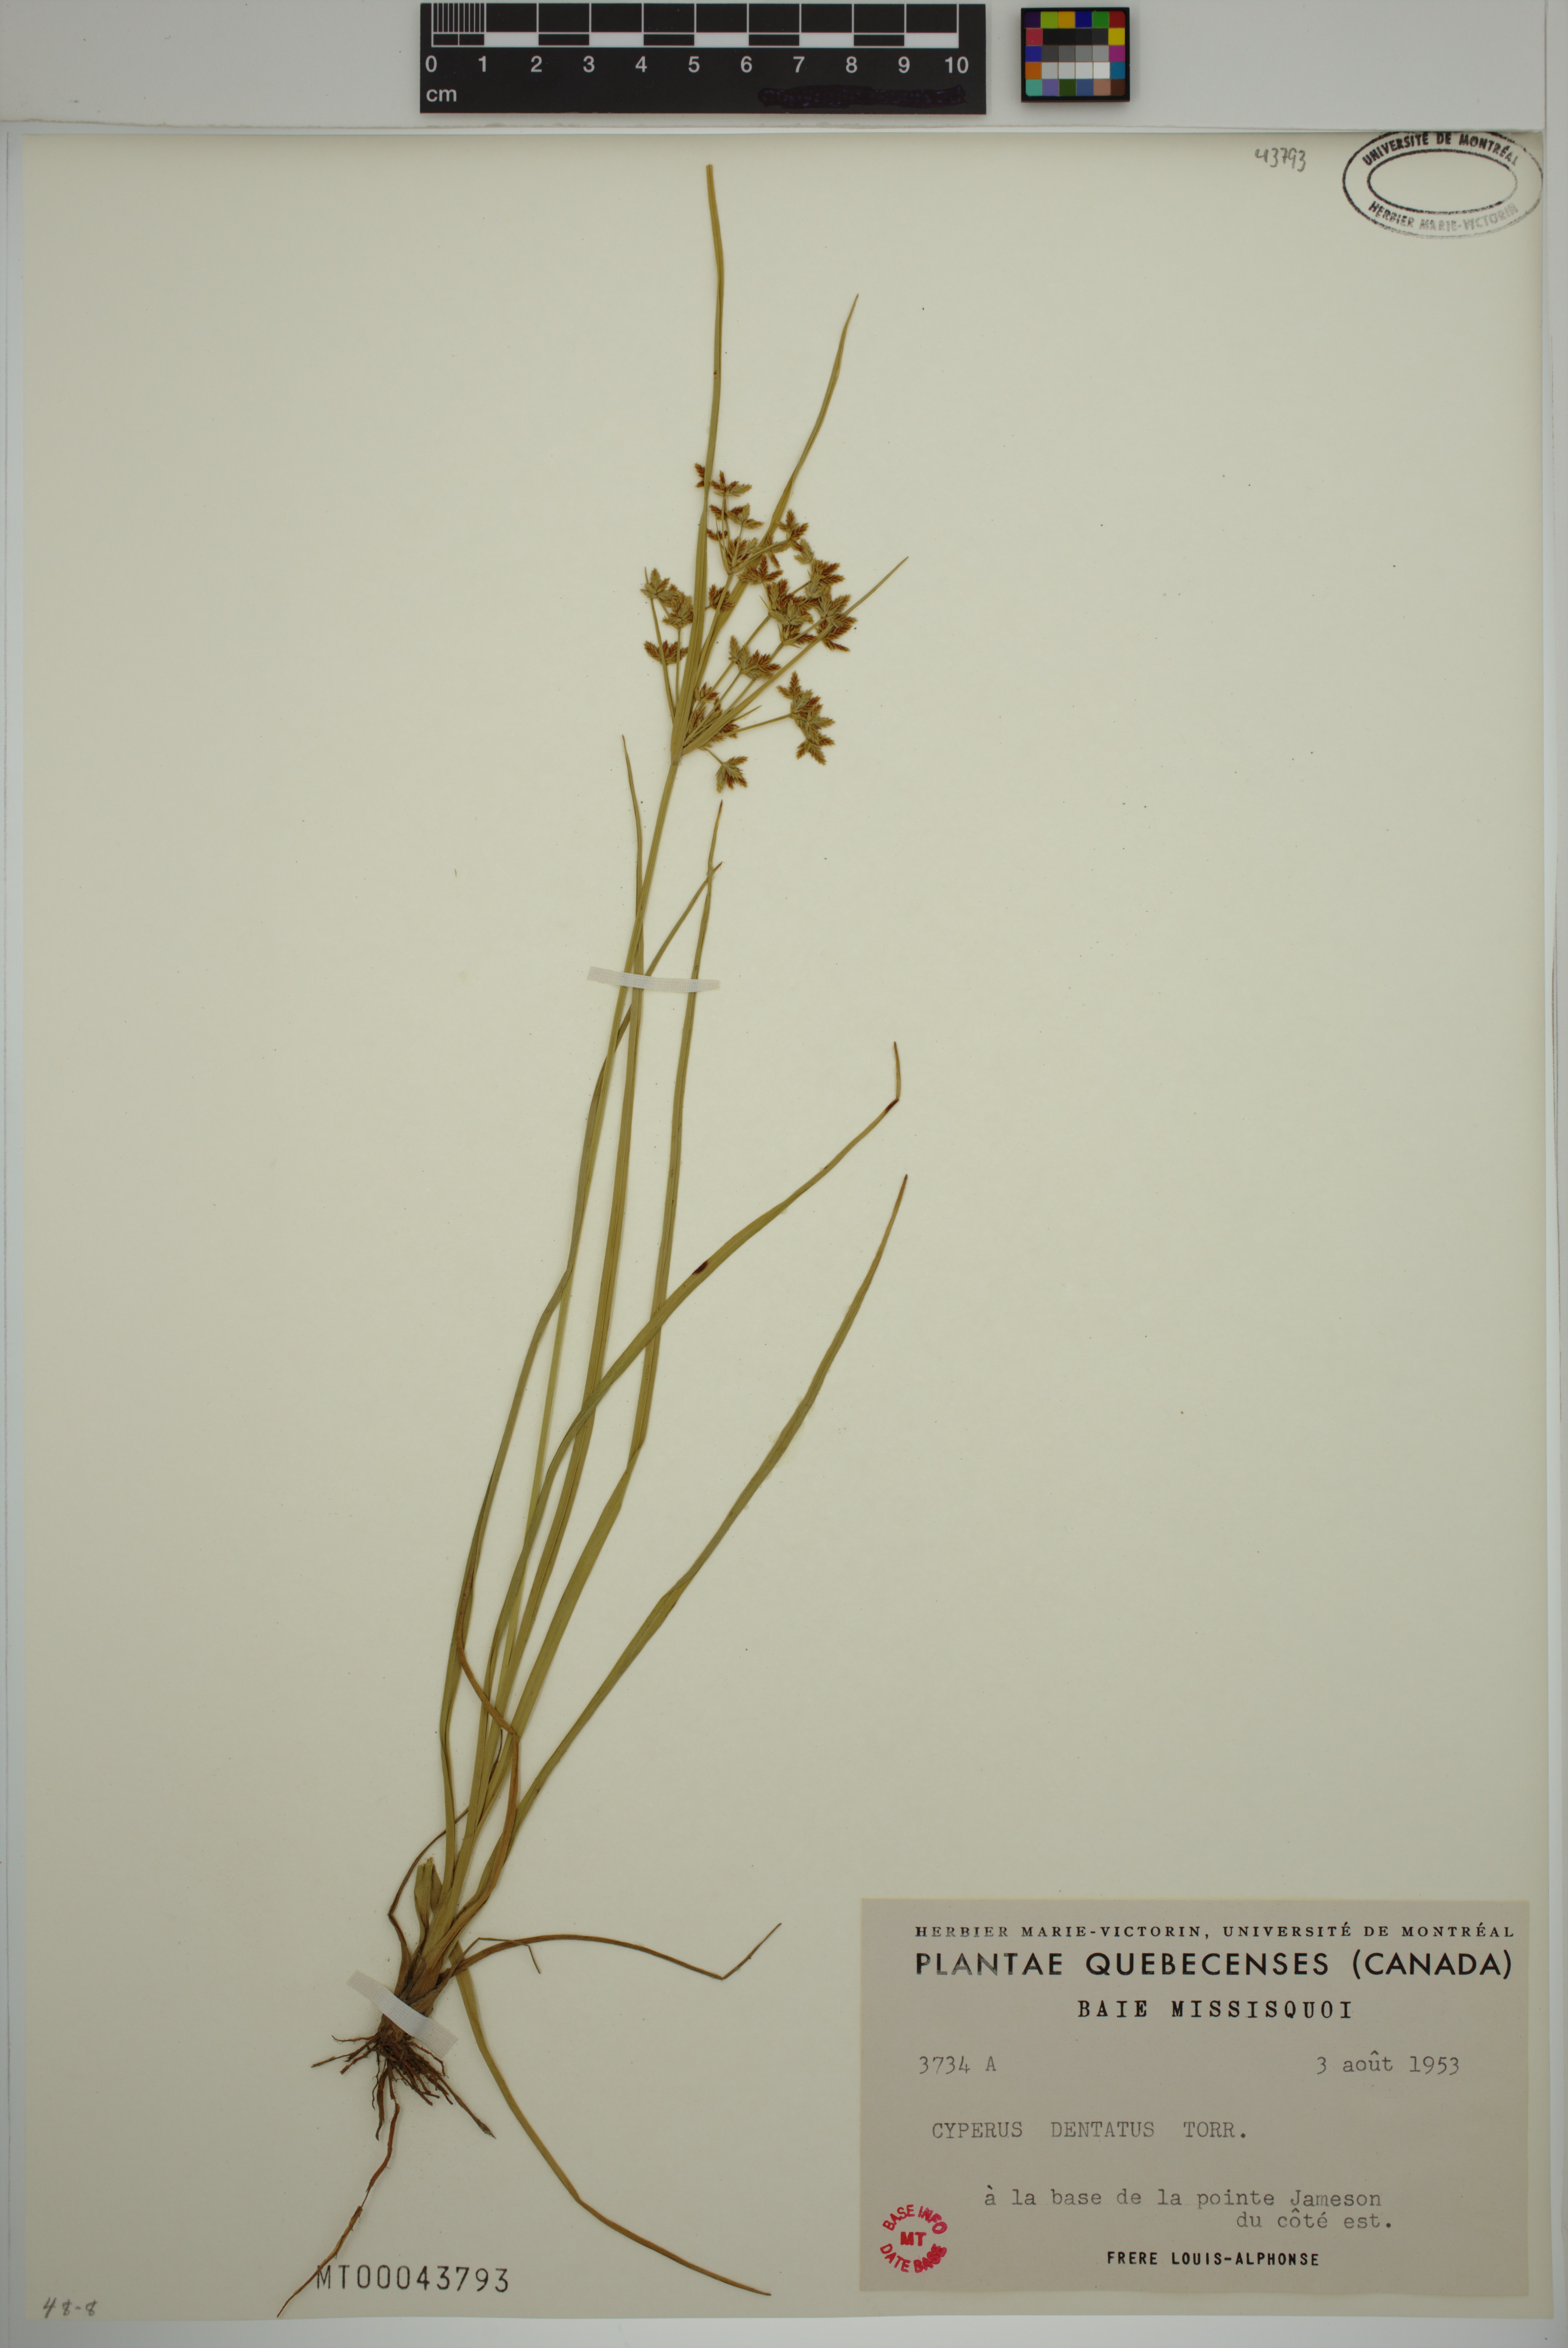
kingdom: Plantae
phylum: Tracheophyta
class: Liliopsida
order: Poales
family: Cyperaceae
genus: Cyperus
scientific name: Cyperus dentatus
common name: Dentate umbrella sedge
